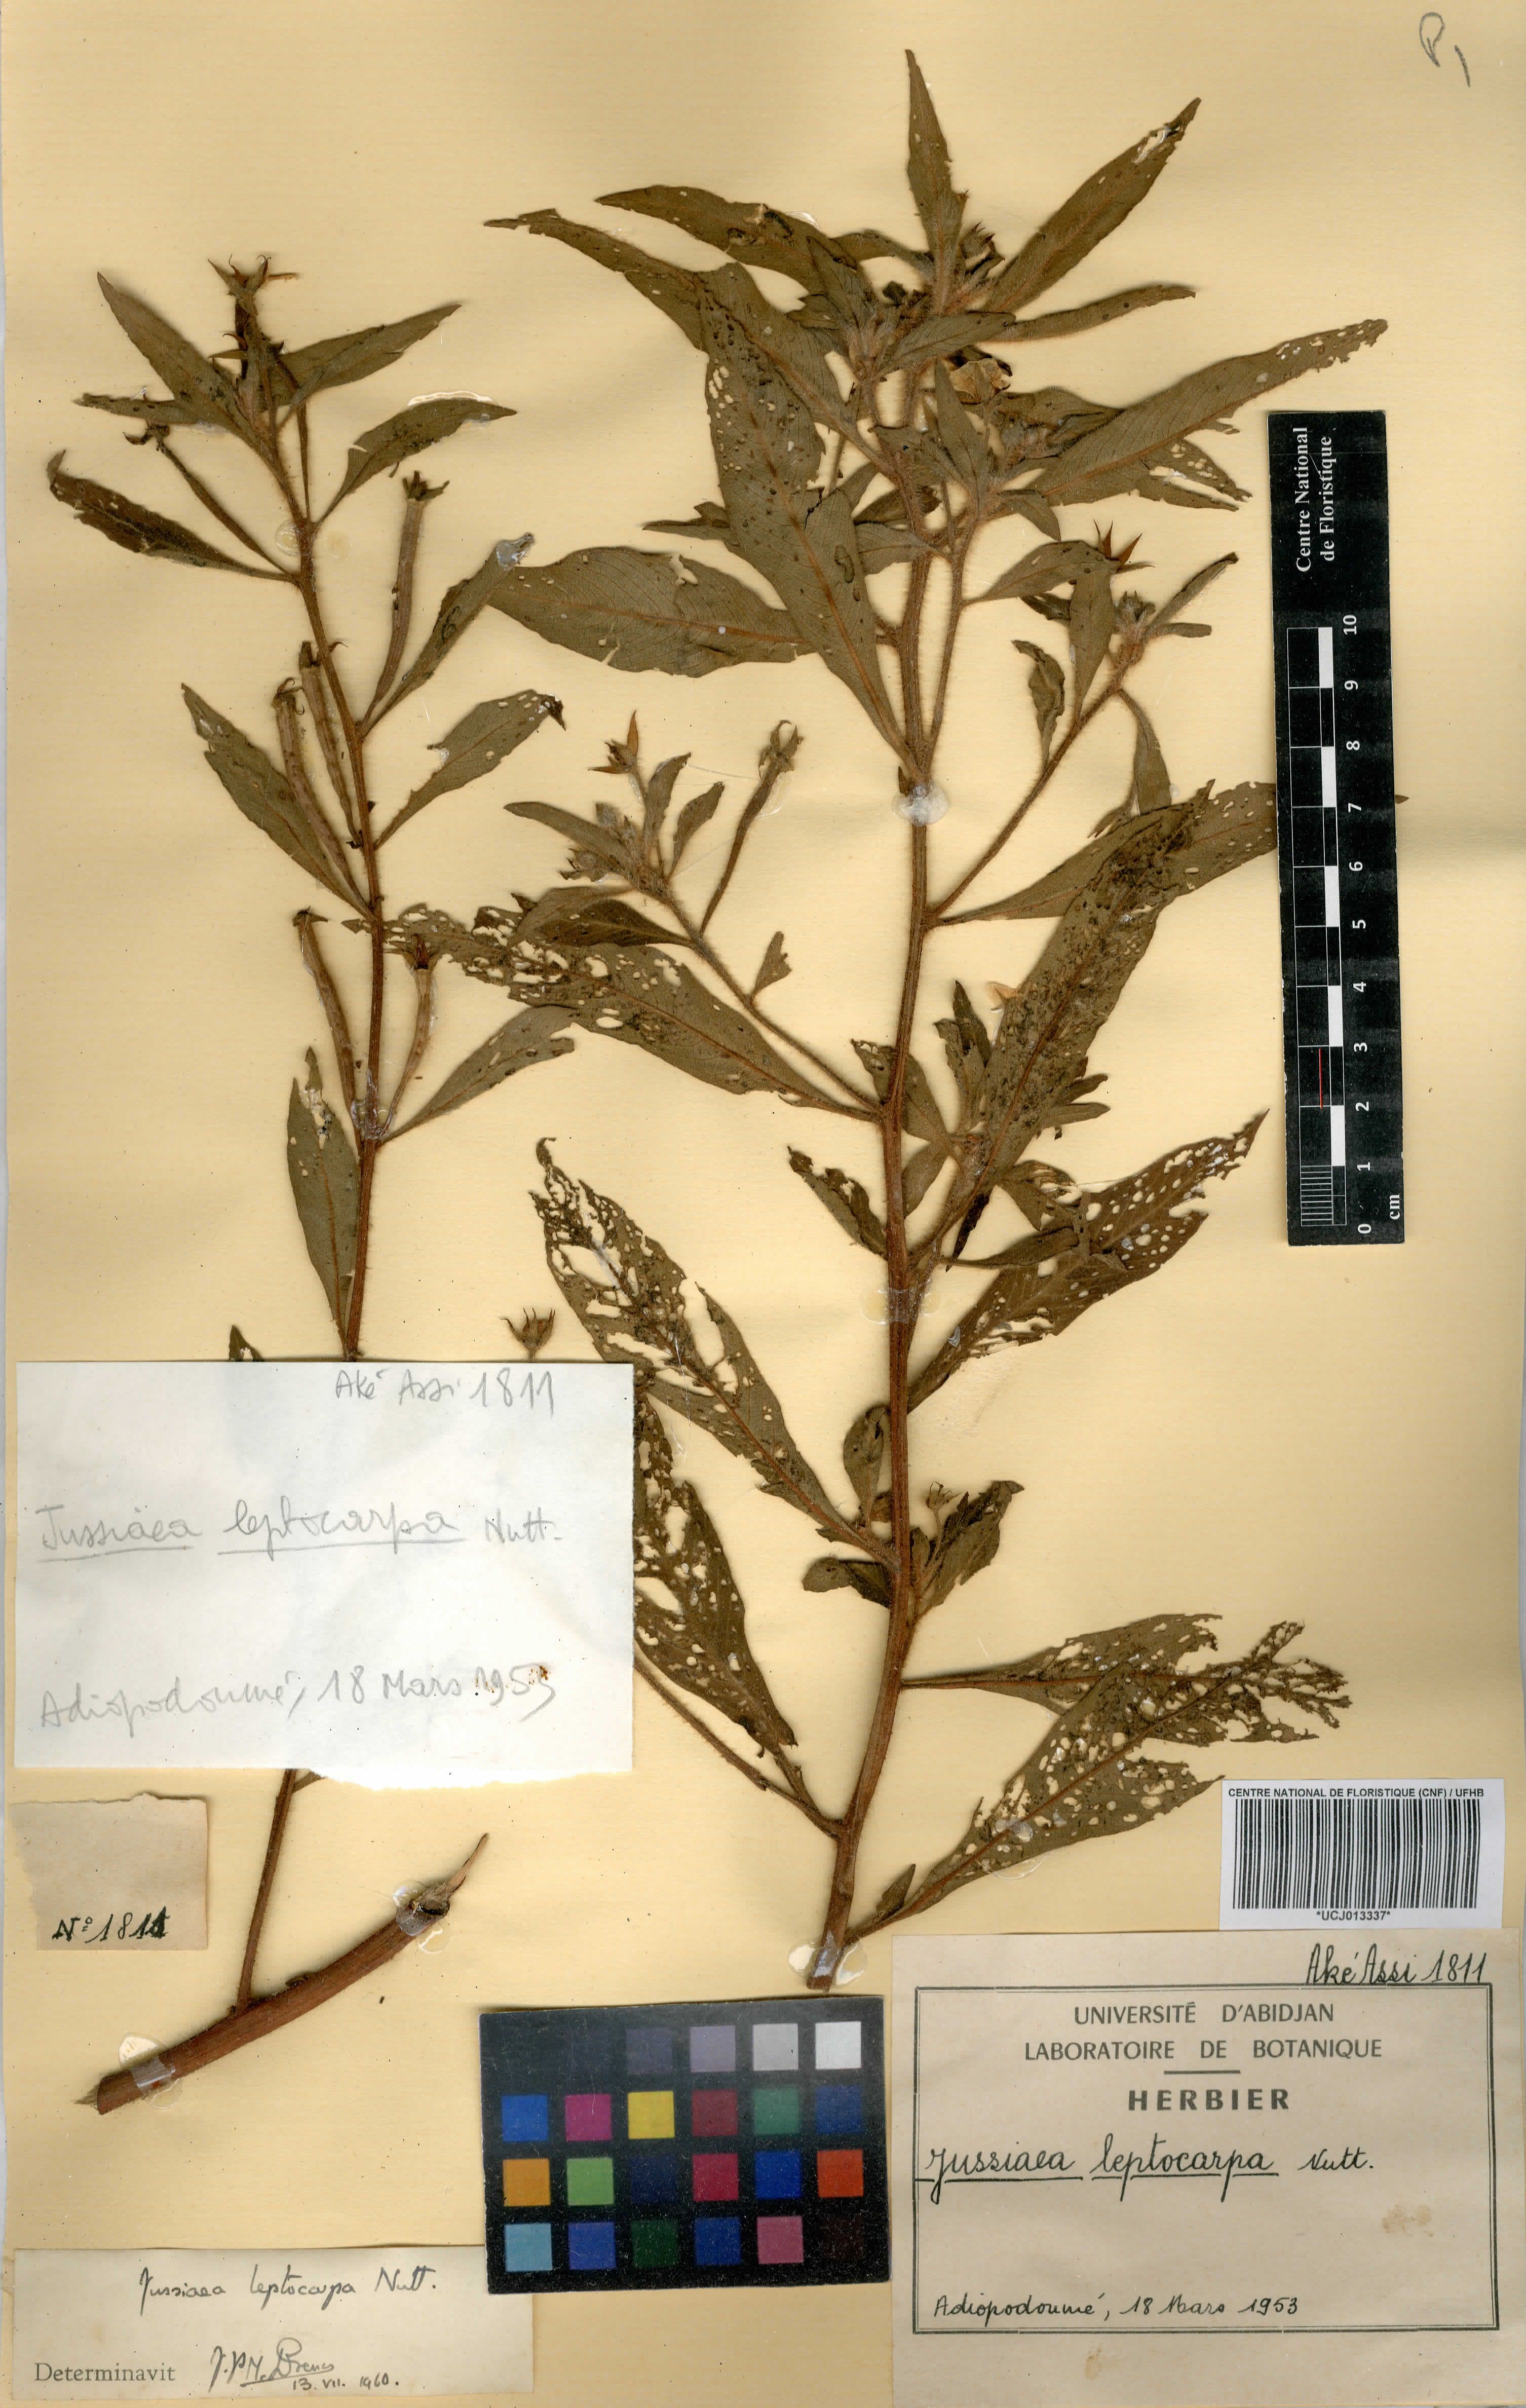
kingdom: Plantae
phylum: Tracheophyta
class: Magnoliopsida
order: Myrtales
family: Onagraceae
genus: Ludwigia
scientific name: Ludwigia leptocarpa
